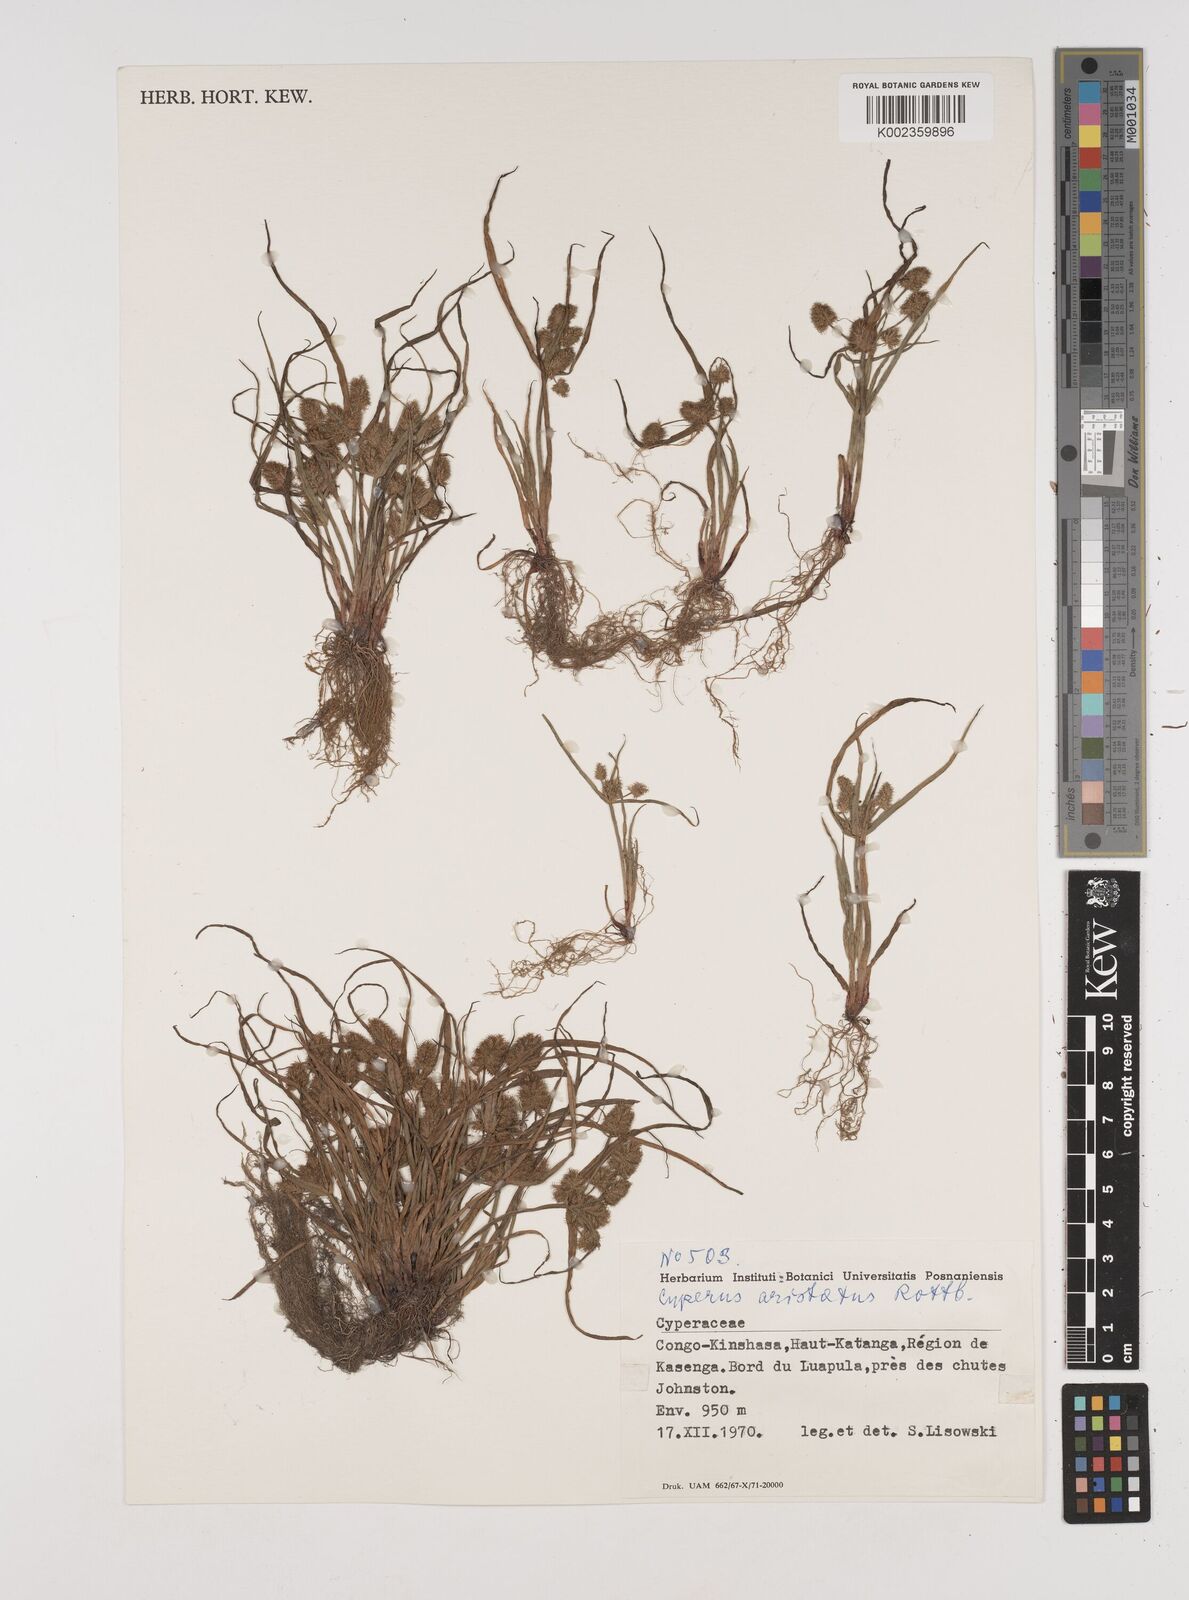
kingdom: Plantae
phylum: Tracheophyta
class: Liliopsida
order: Poales
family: Cyperaceae
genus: Cyperus
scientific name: Cyperus squarrosus
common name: Awned cyperus
